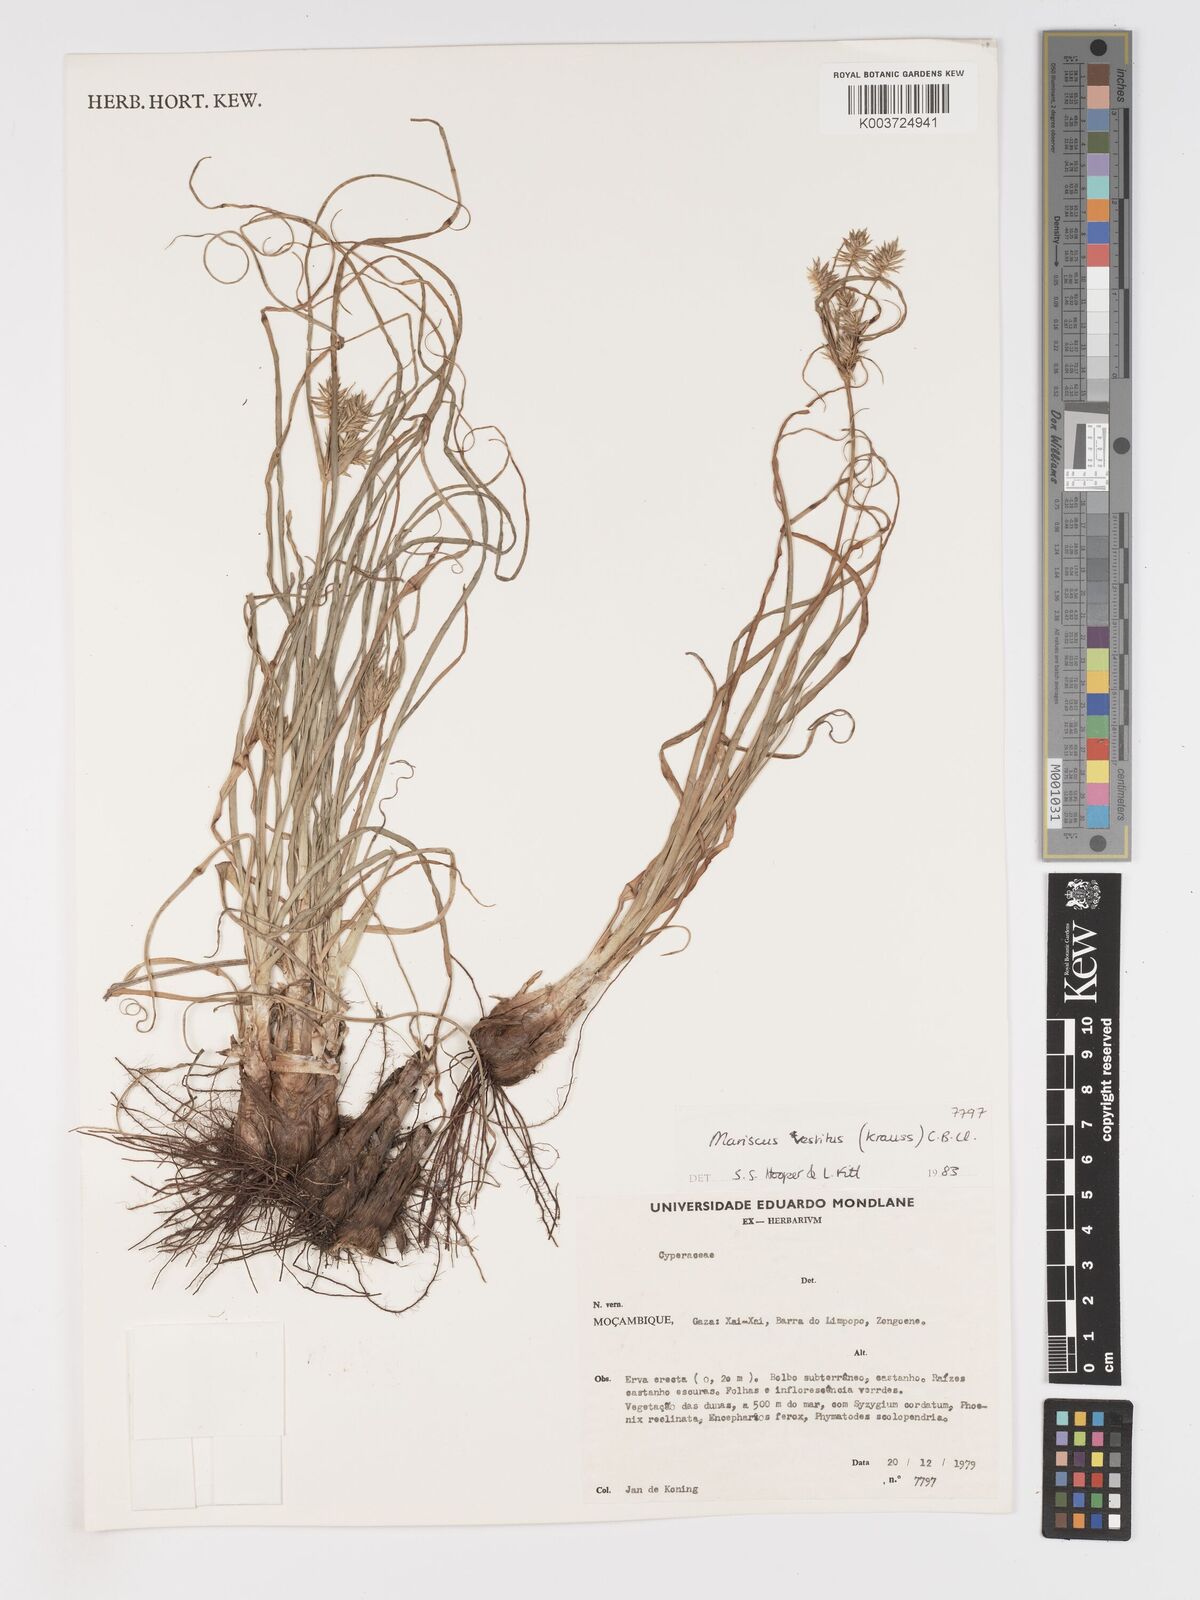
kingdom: Plantae
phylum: Tracheophyta
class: Liliopsida
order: Poales
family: Cyperaceae
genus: Cyperus
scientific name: Cyperus vestitus
